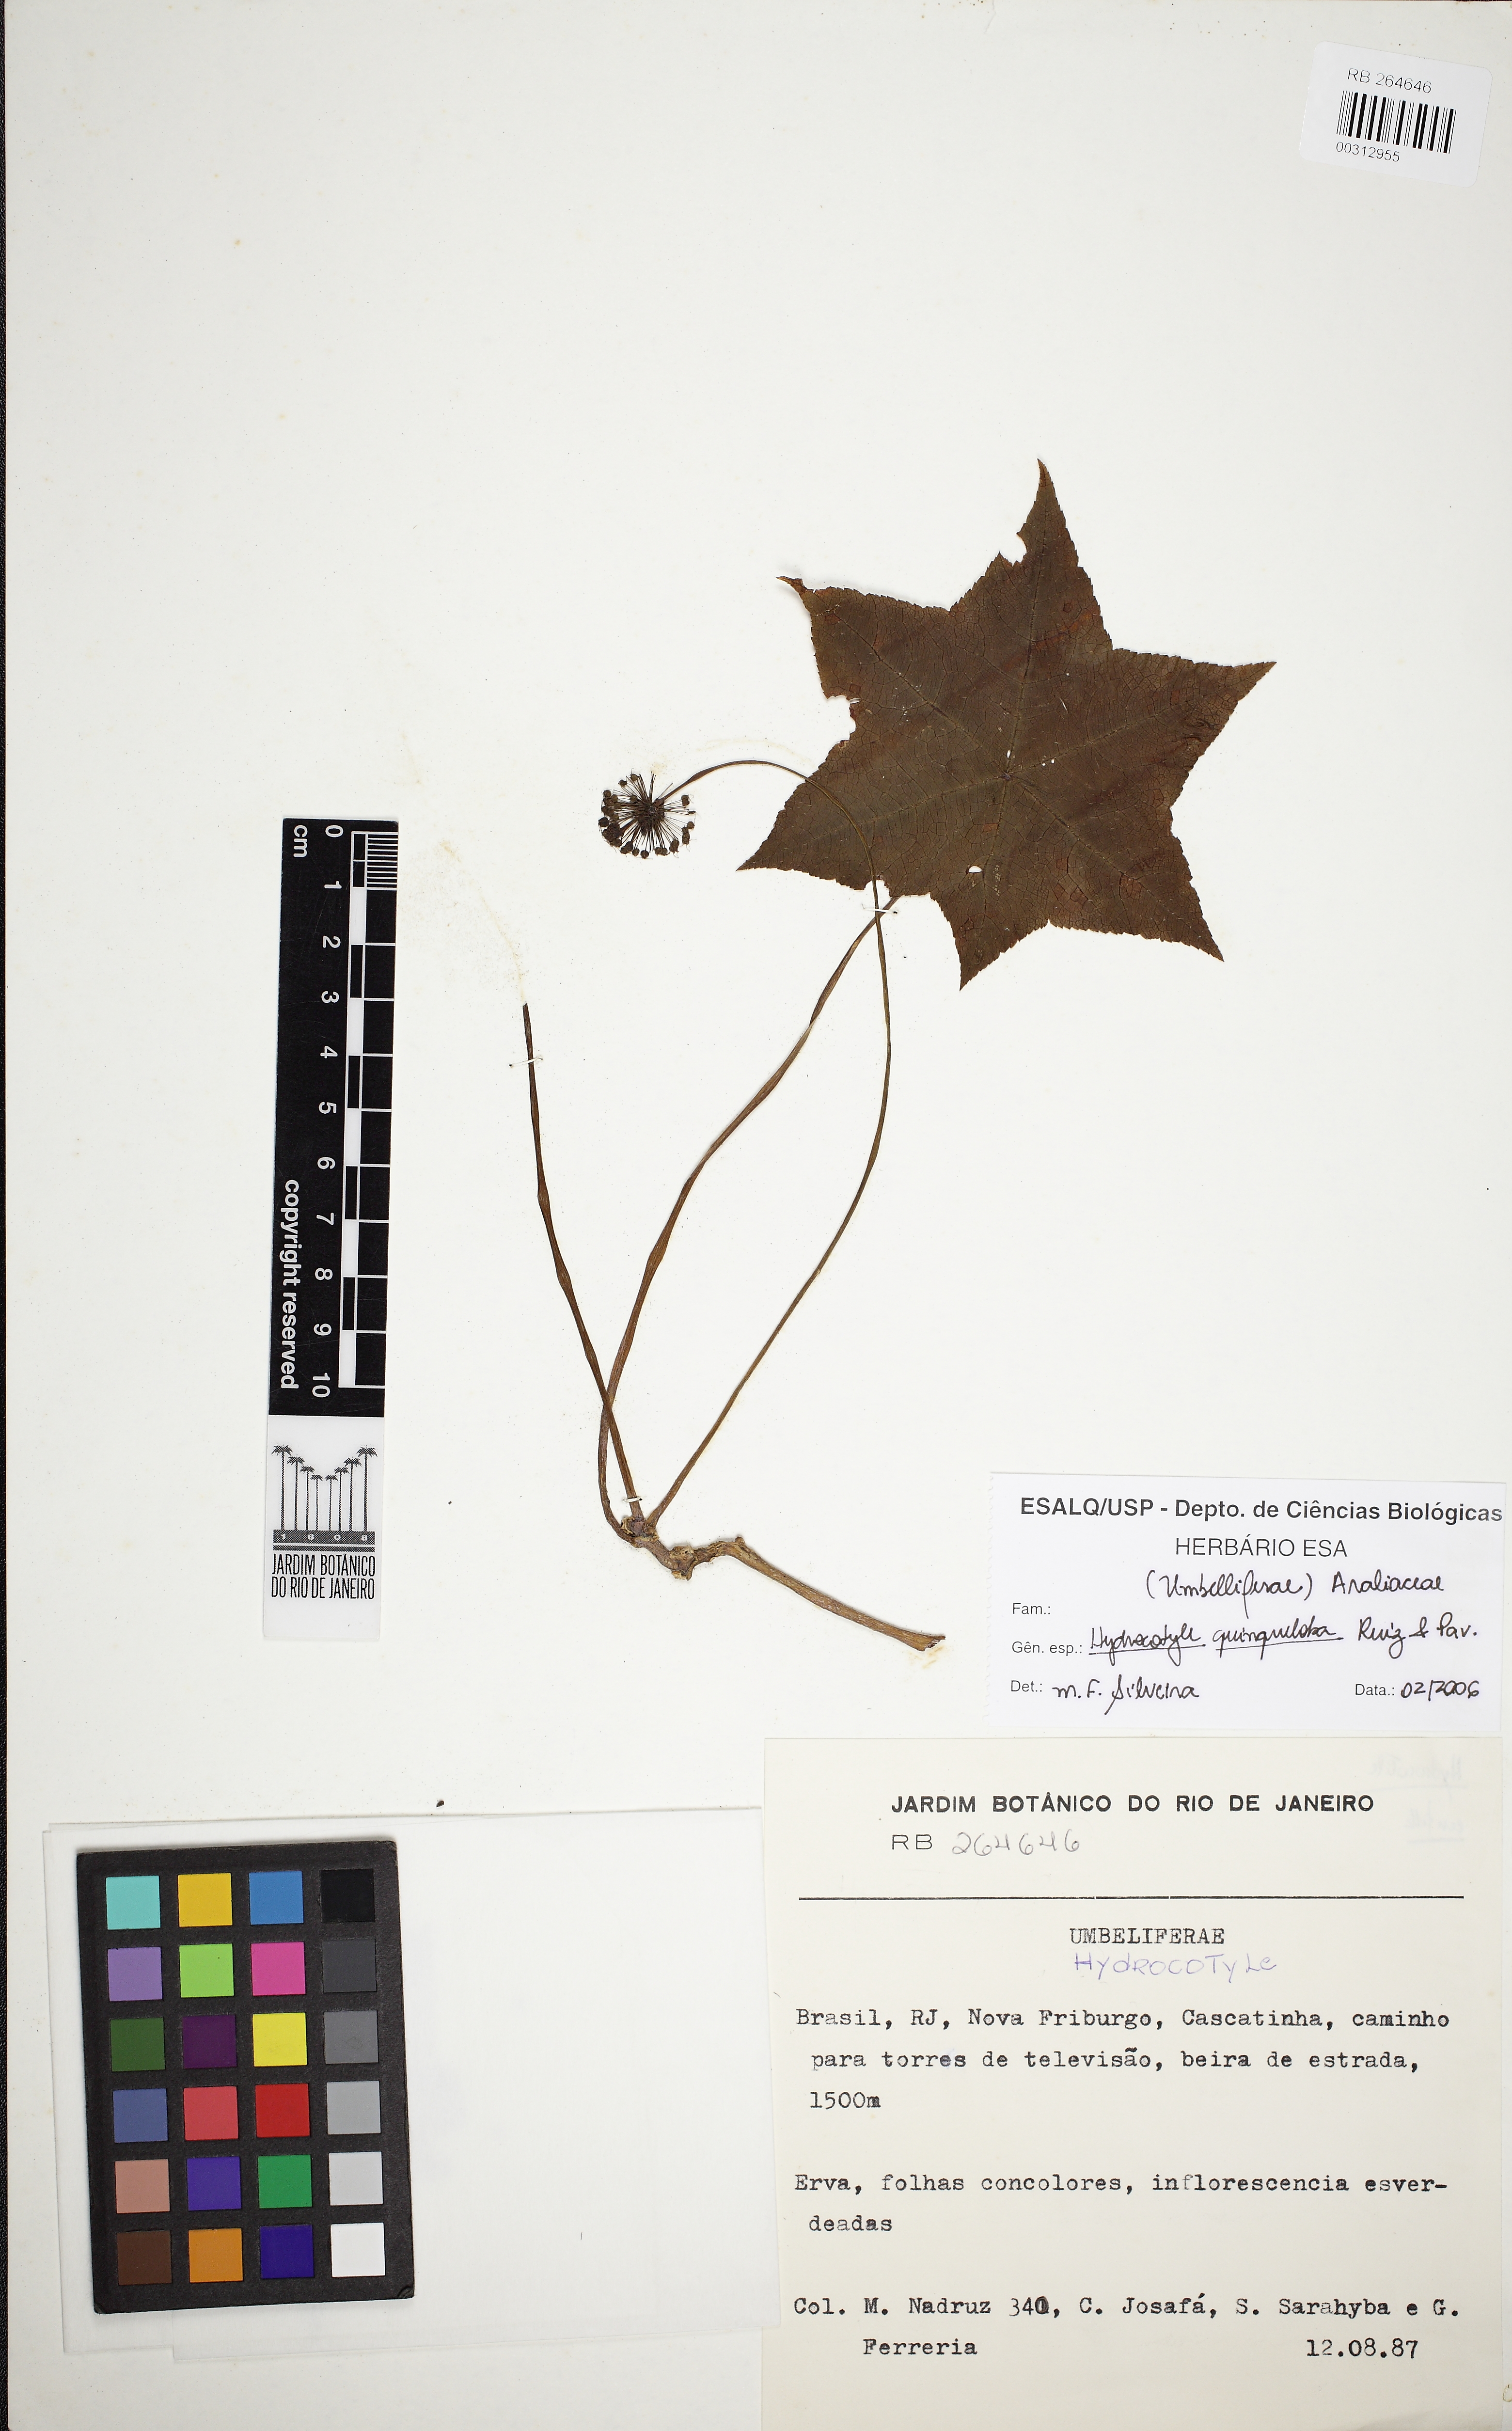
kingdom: Plantae
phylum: Tracheophyta
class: Magnoliopsida
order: Apiales
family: Araliaceae
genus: Hydrocotyle
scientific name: Hydrocotyle quinqueloba
